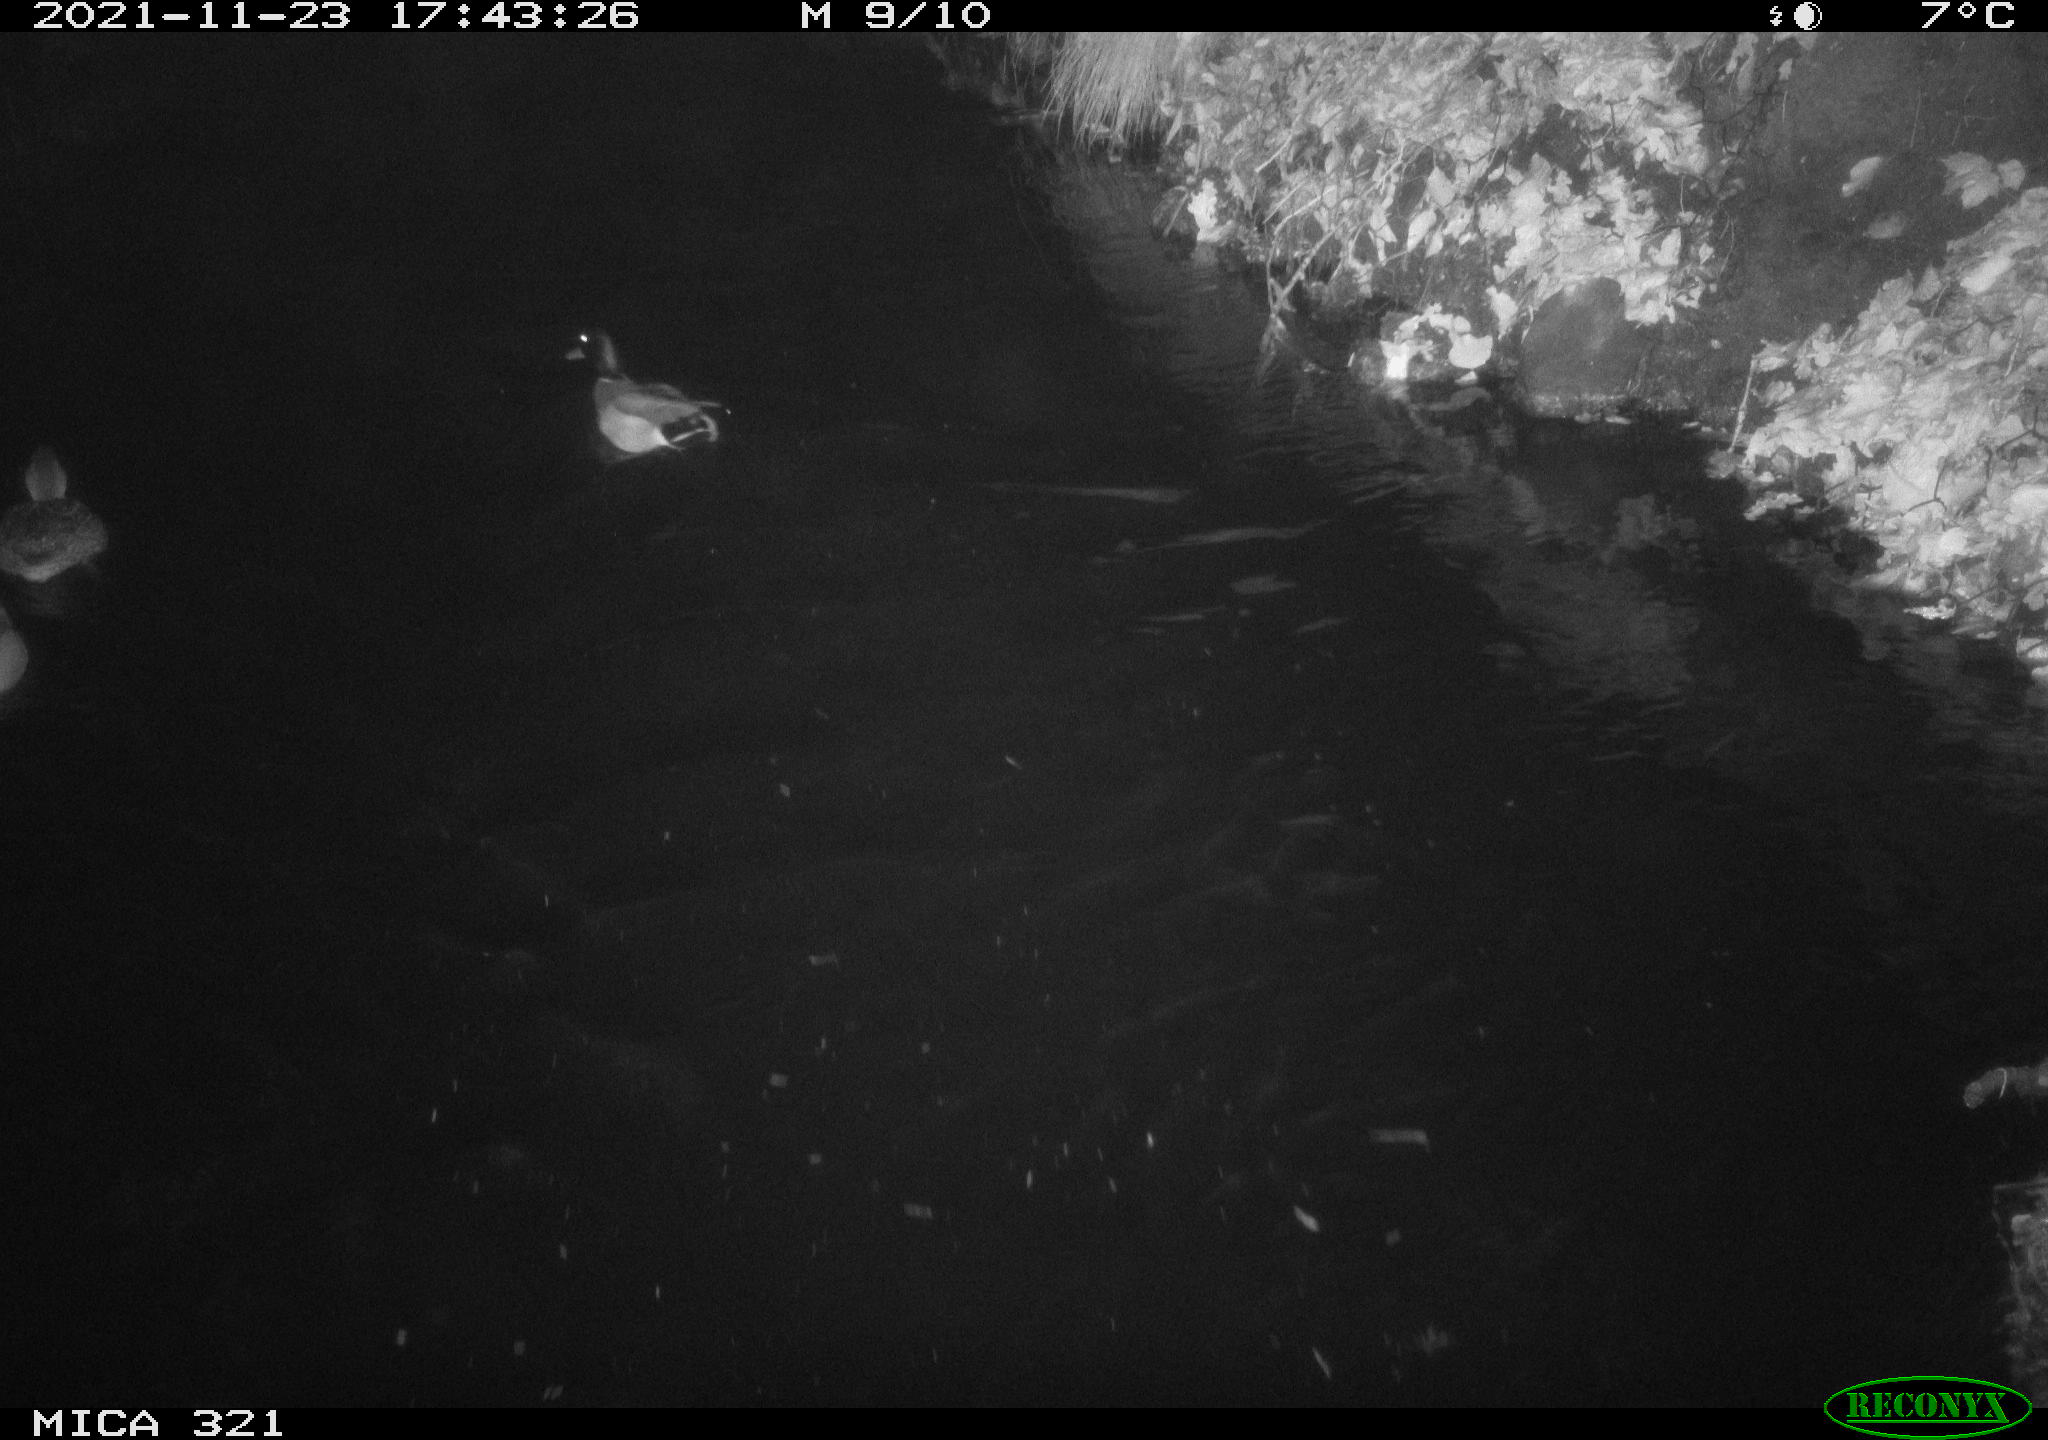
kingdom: Animalia
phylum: Chordata
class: Aves
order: Anseriformes
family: Anatidae
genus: Anas
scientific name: Anas platyrhynchos
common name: Mallard
